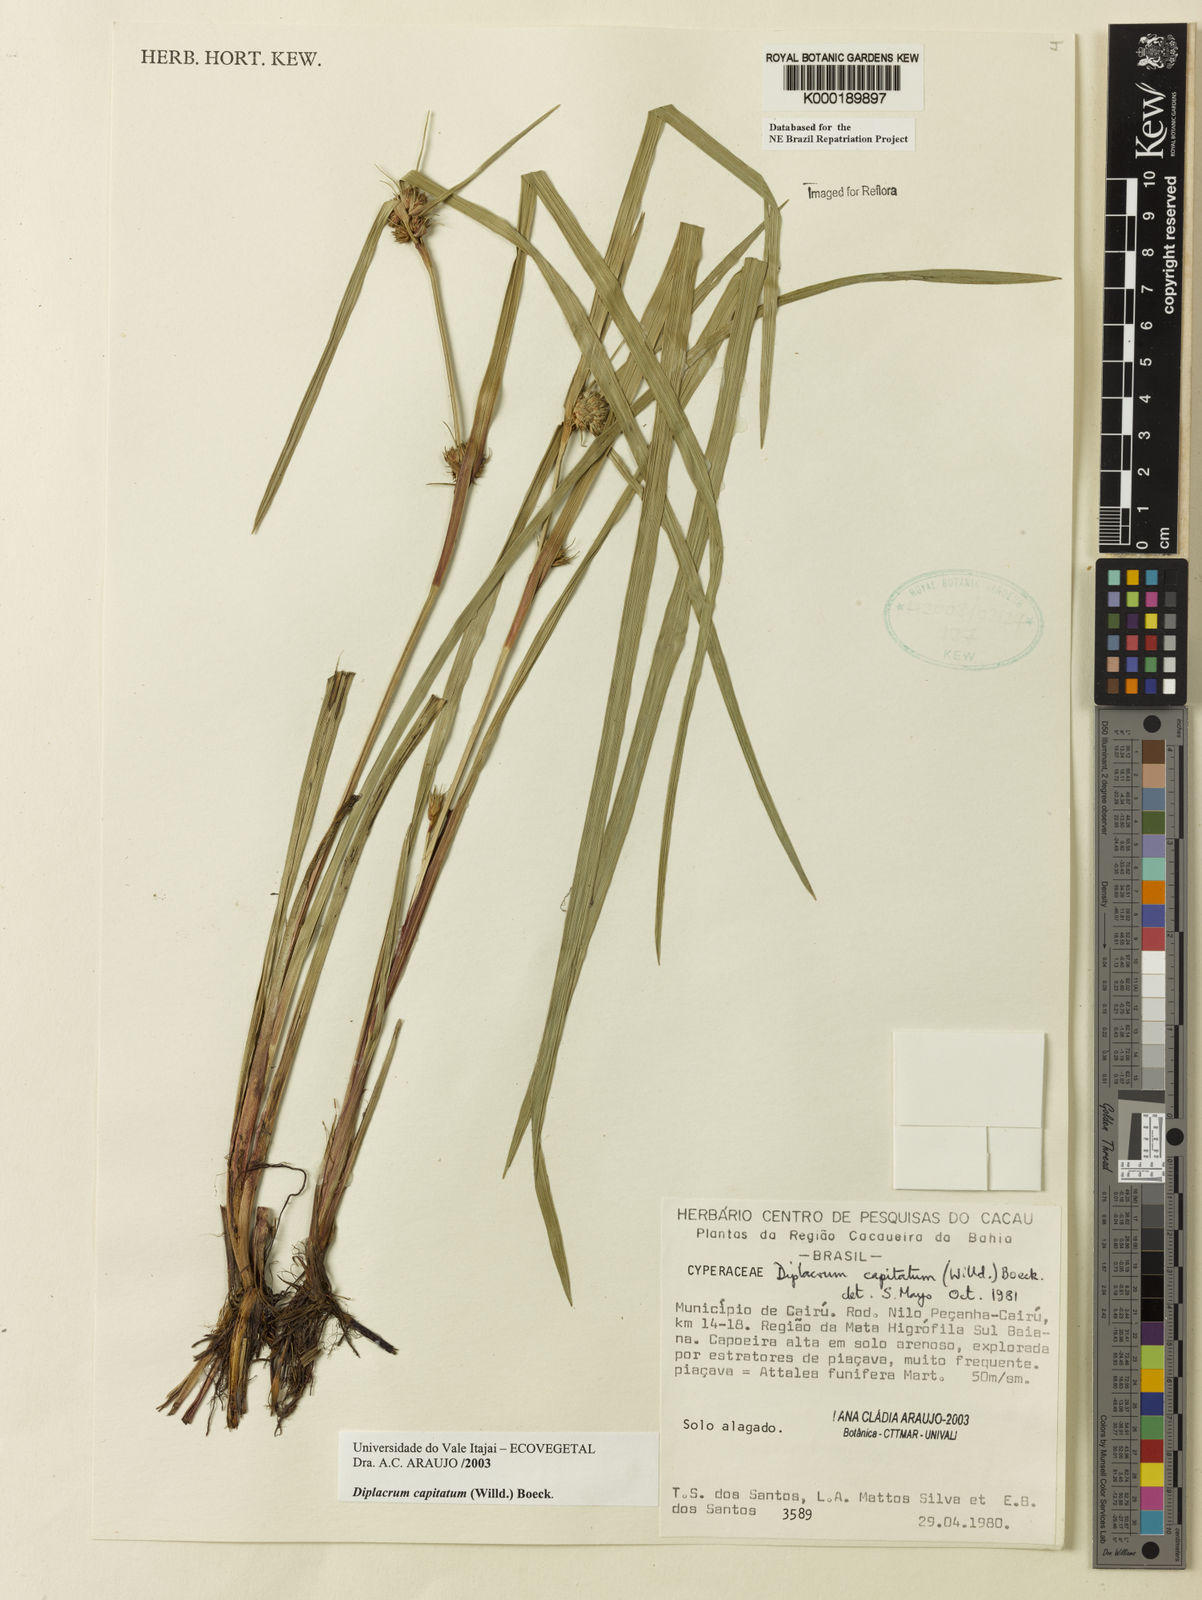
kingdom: Plantae
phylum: Tracheophyta
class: Liliopsida
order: Poales
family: Cyperaceae
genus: Diplacrum
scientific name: Diplacrum capitatum
